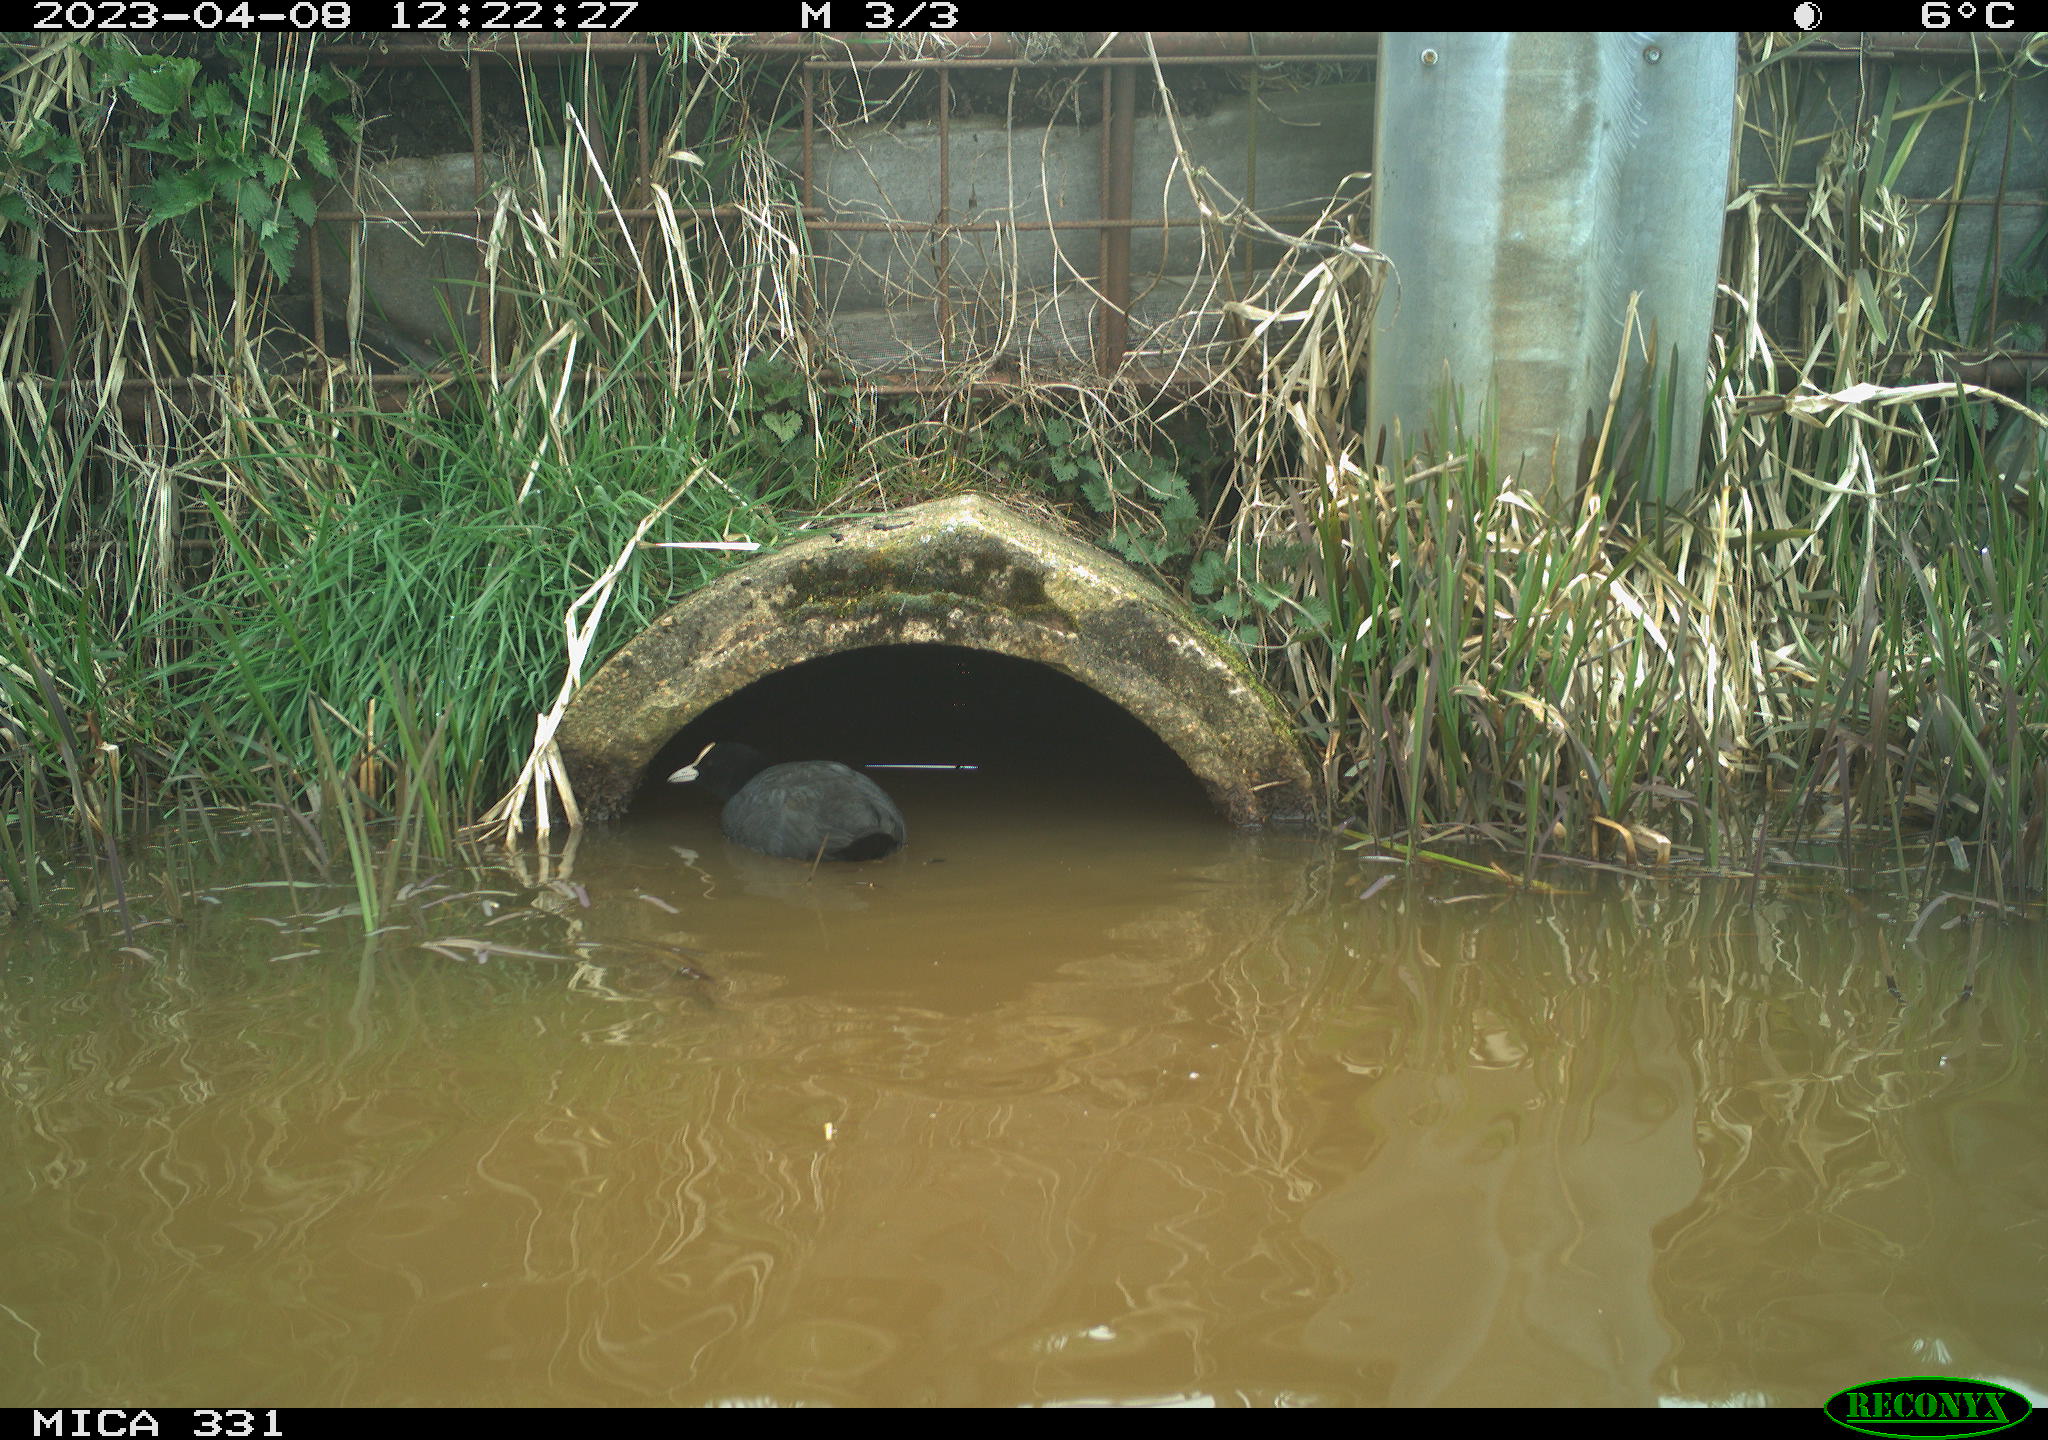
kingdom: Animalia
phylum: Chordata
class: Aves
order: Gruiformes
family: Rallidae
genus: Fulica
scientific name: Fulica atra
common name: Eurasian coot
